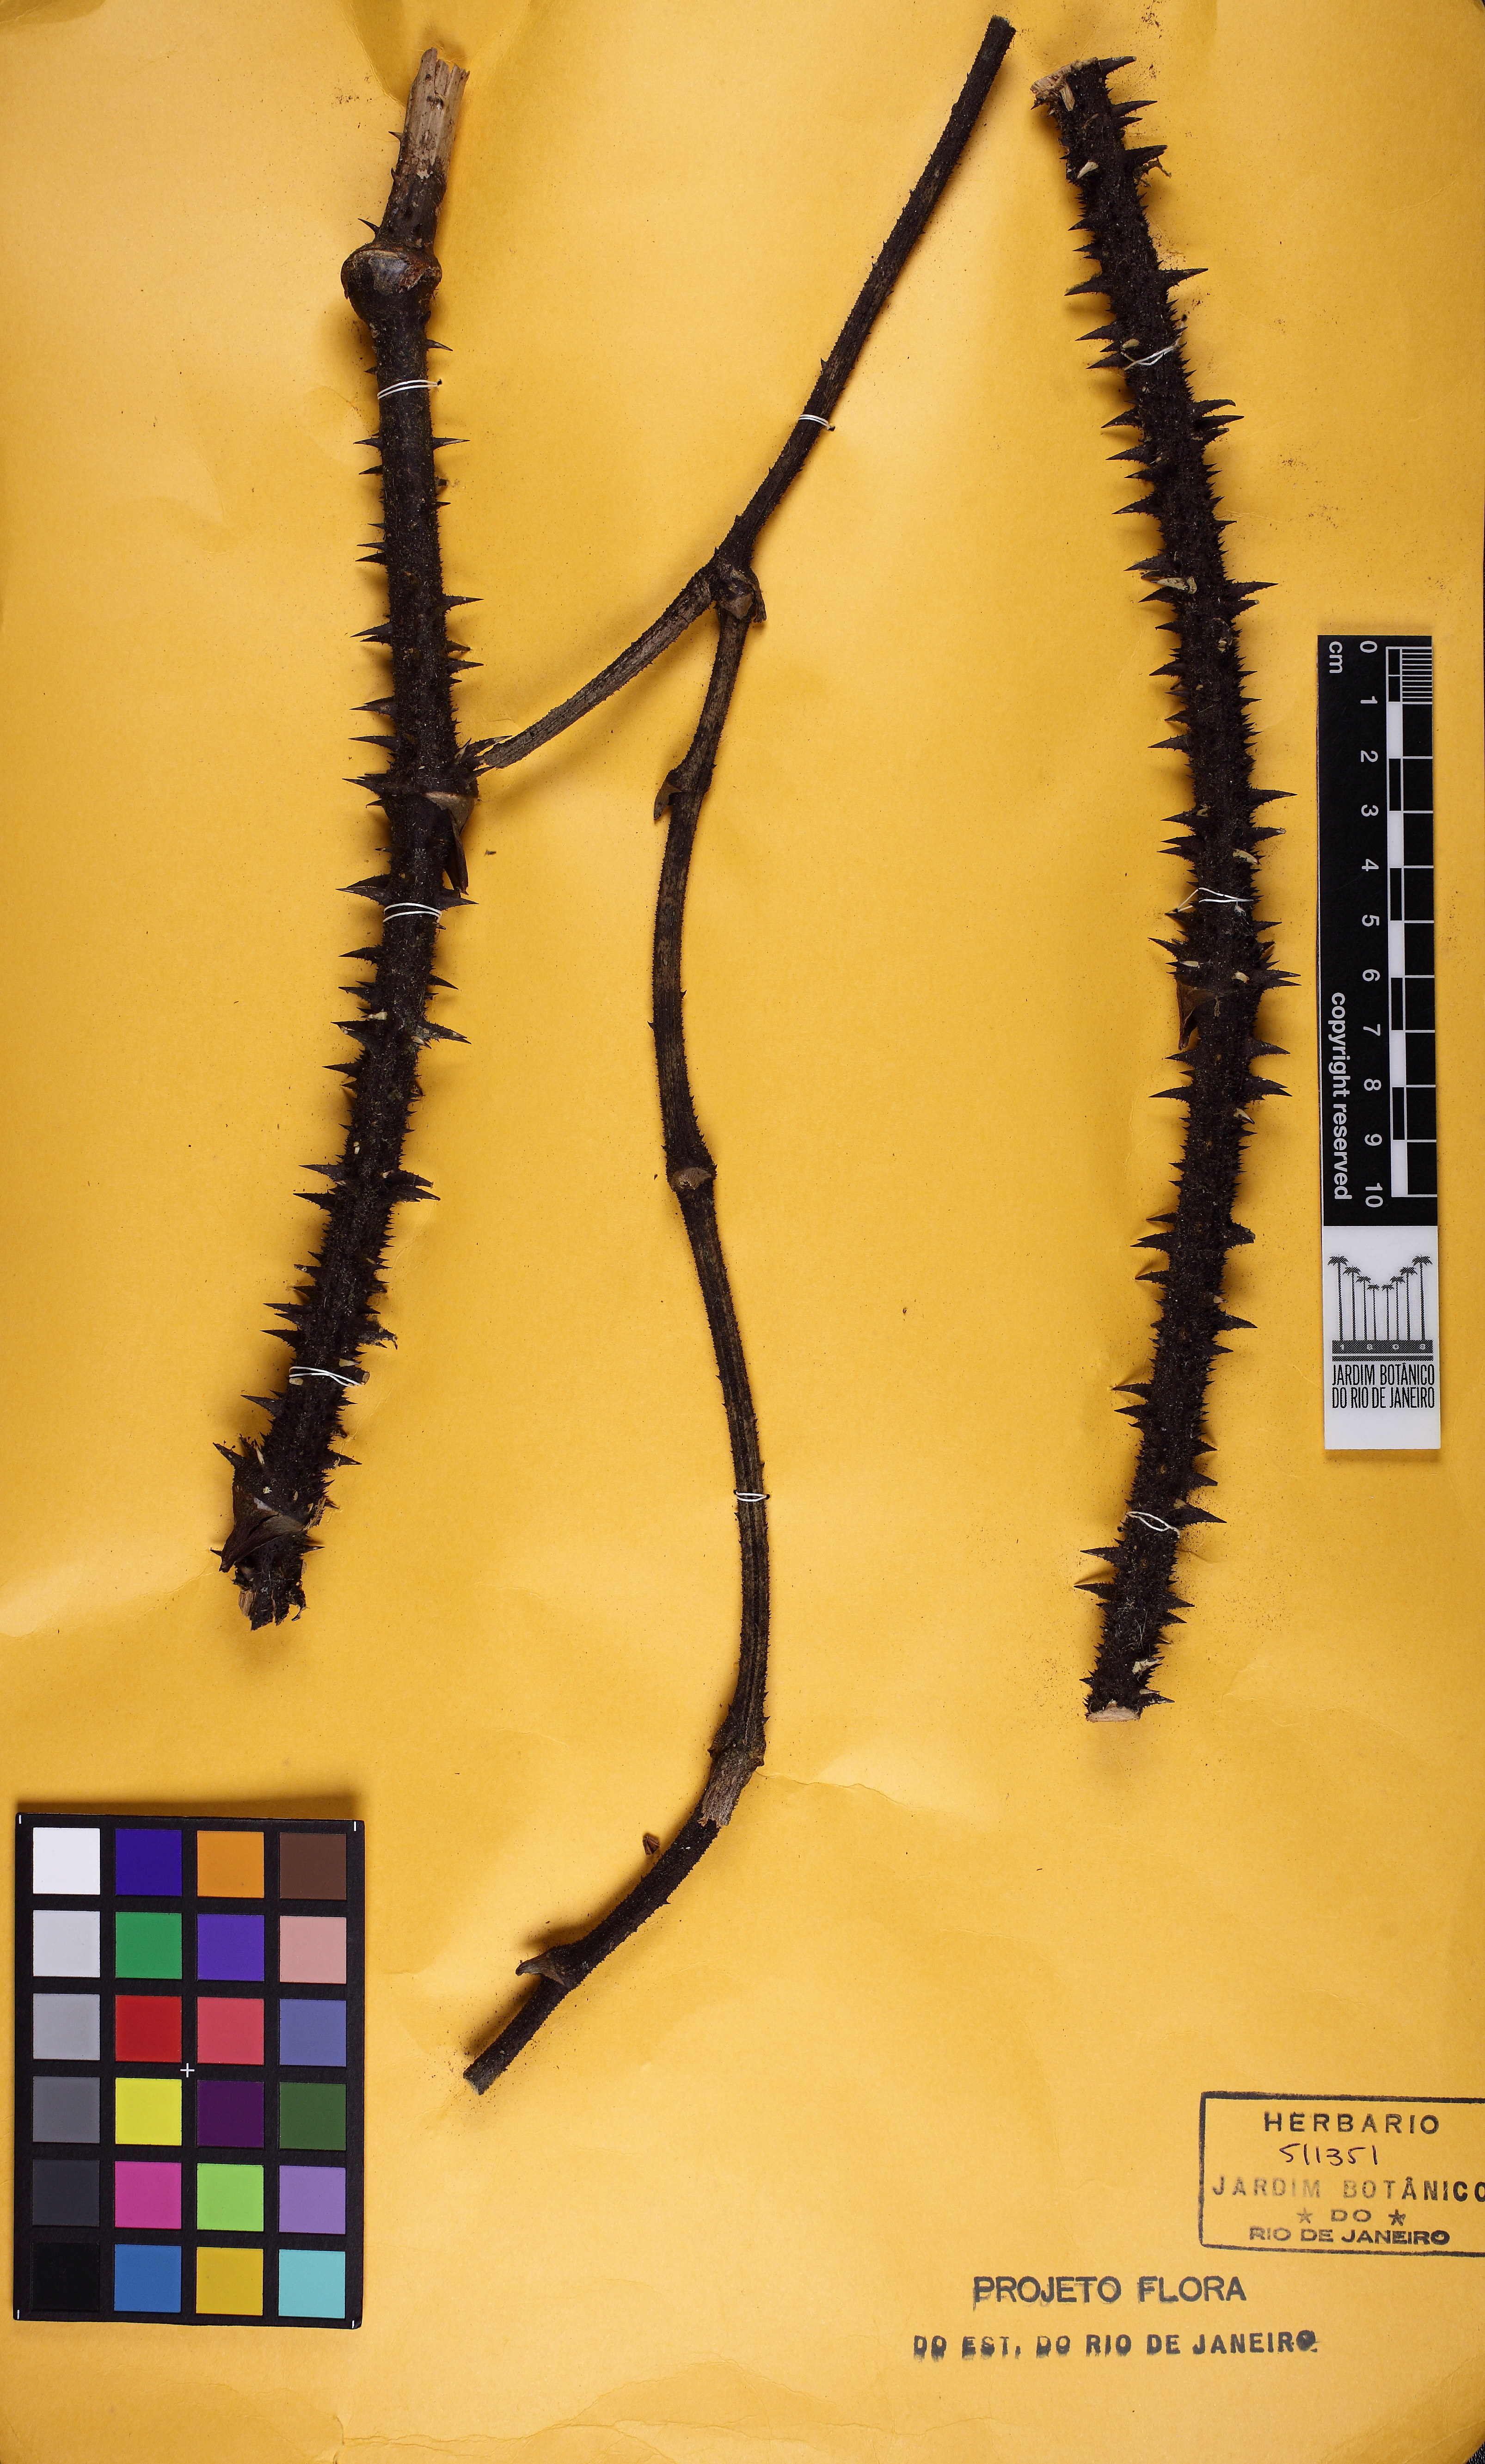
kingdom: Plantae
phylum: Tracheophyta
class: Liliopsida
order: Liliales
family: Smilacaceae
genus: Smilax
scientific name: Smilax japicanga
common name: Japicanga
